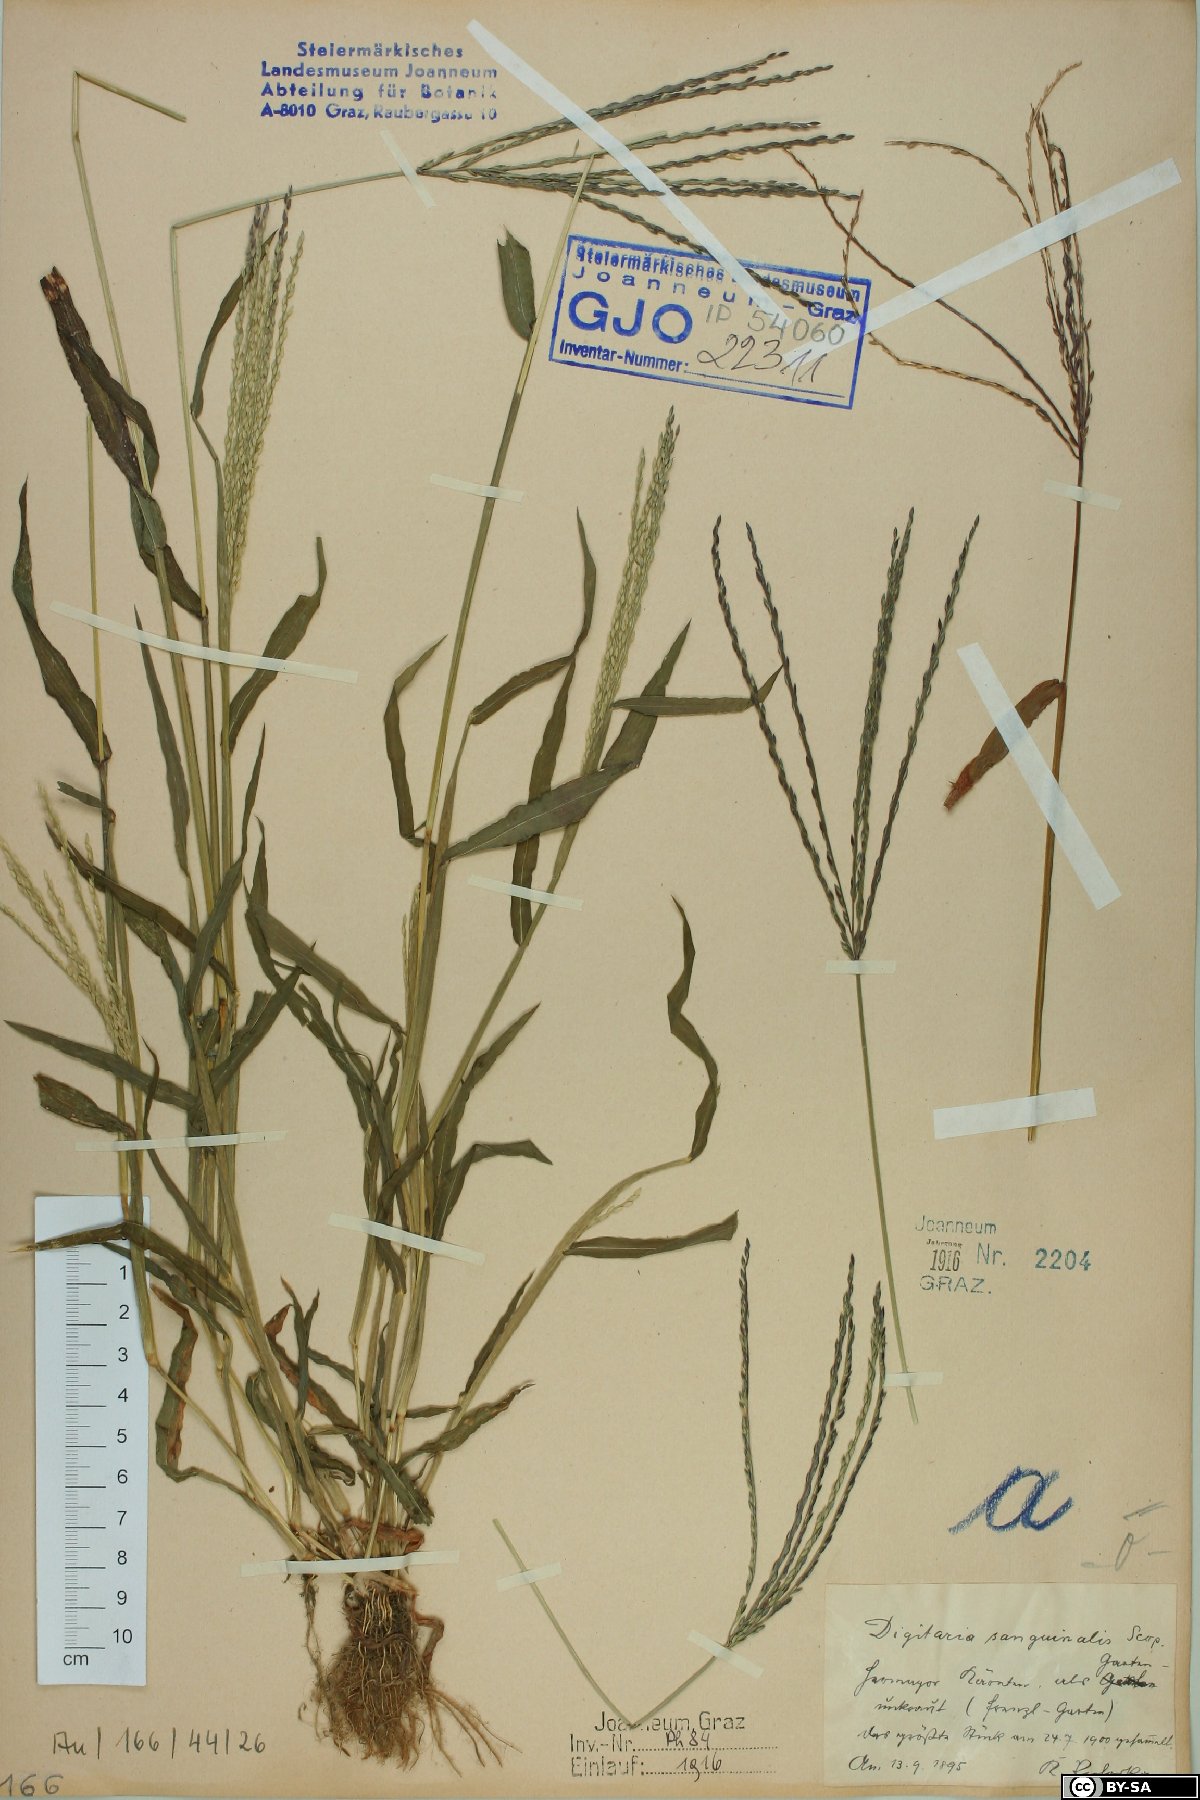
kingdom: Plantae
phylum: Tracheophyta
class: Liliopsida
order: Poales
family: Poaceae
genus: Digitaria
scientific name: Digitaria sanguinalis
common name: Hairy crabgrass
